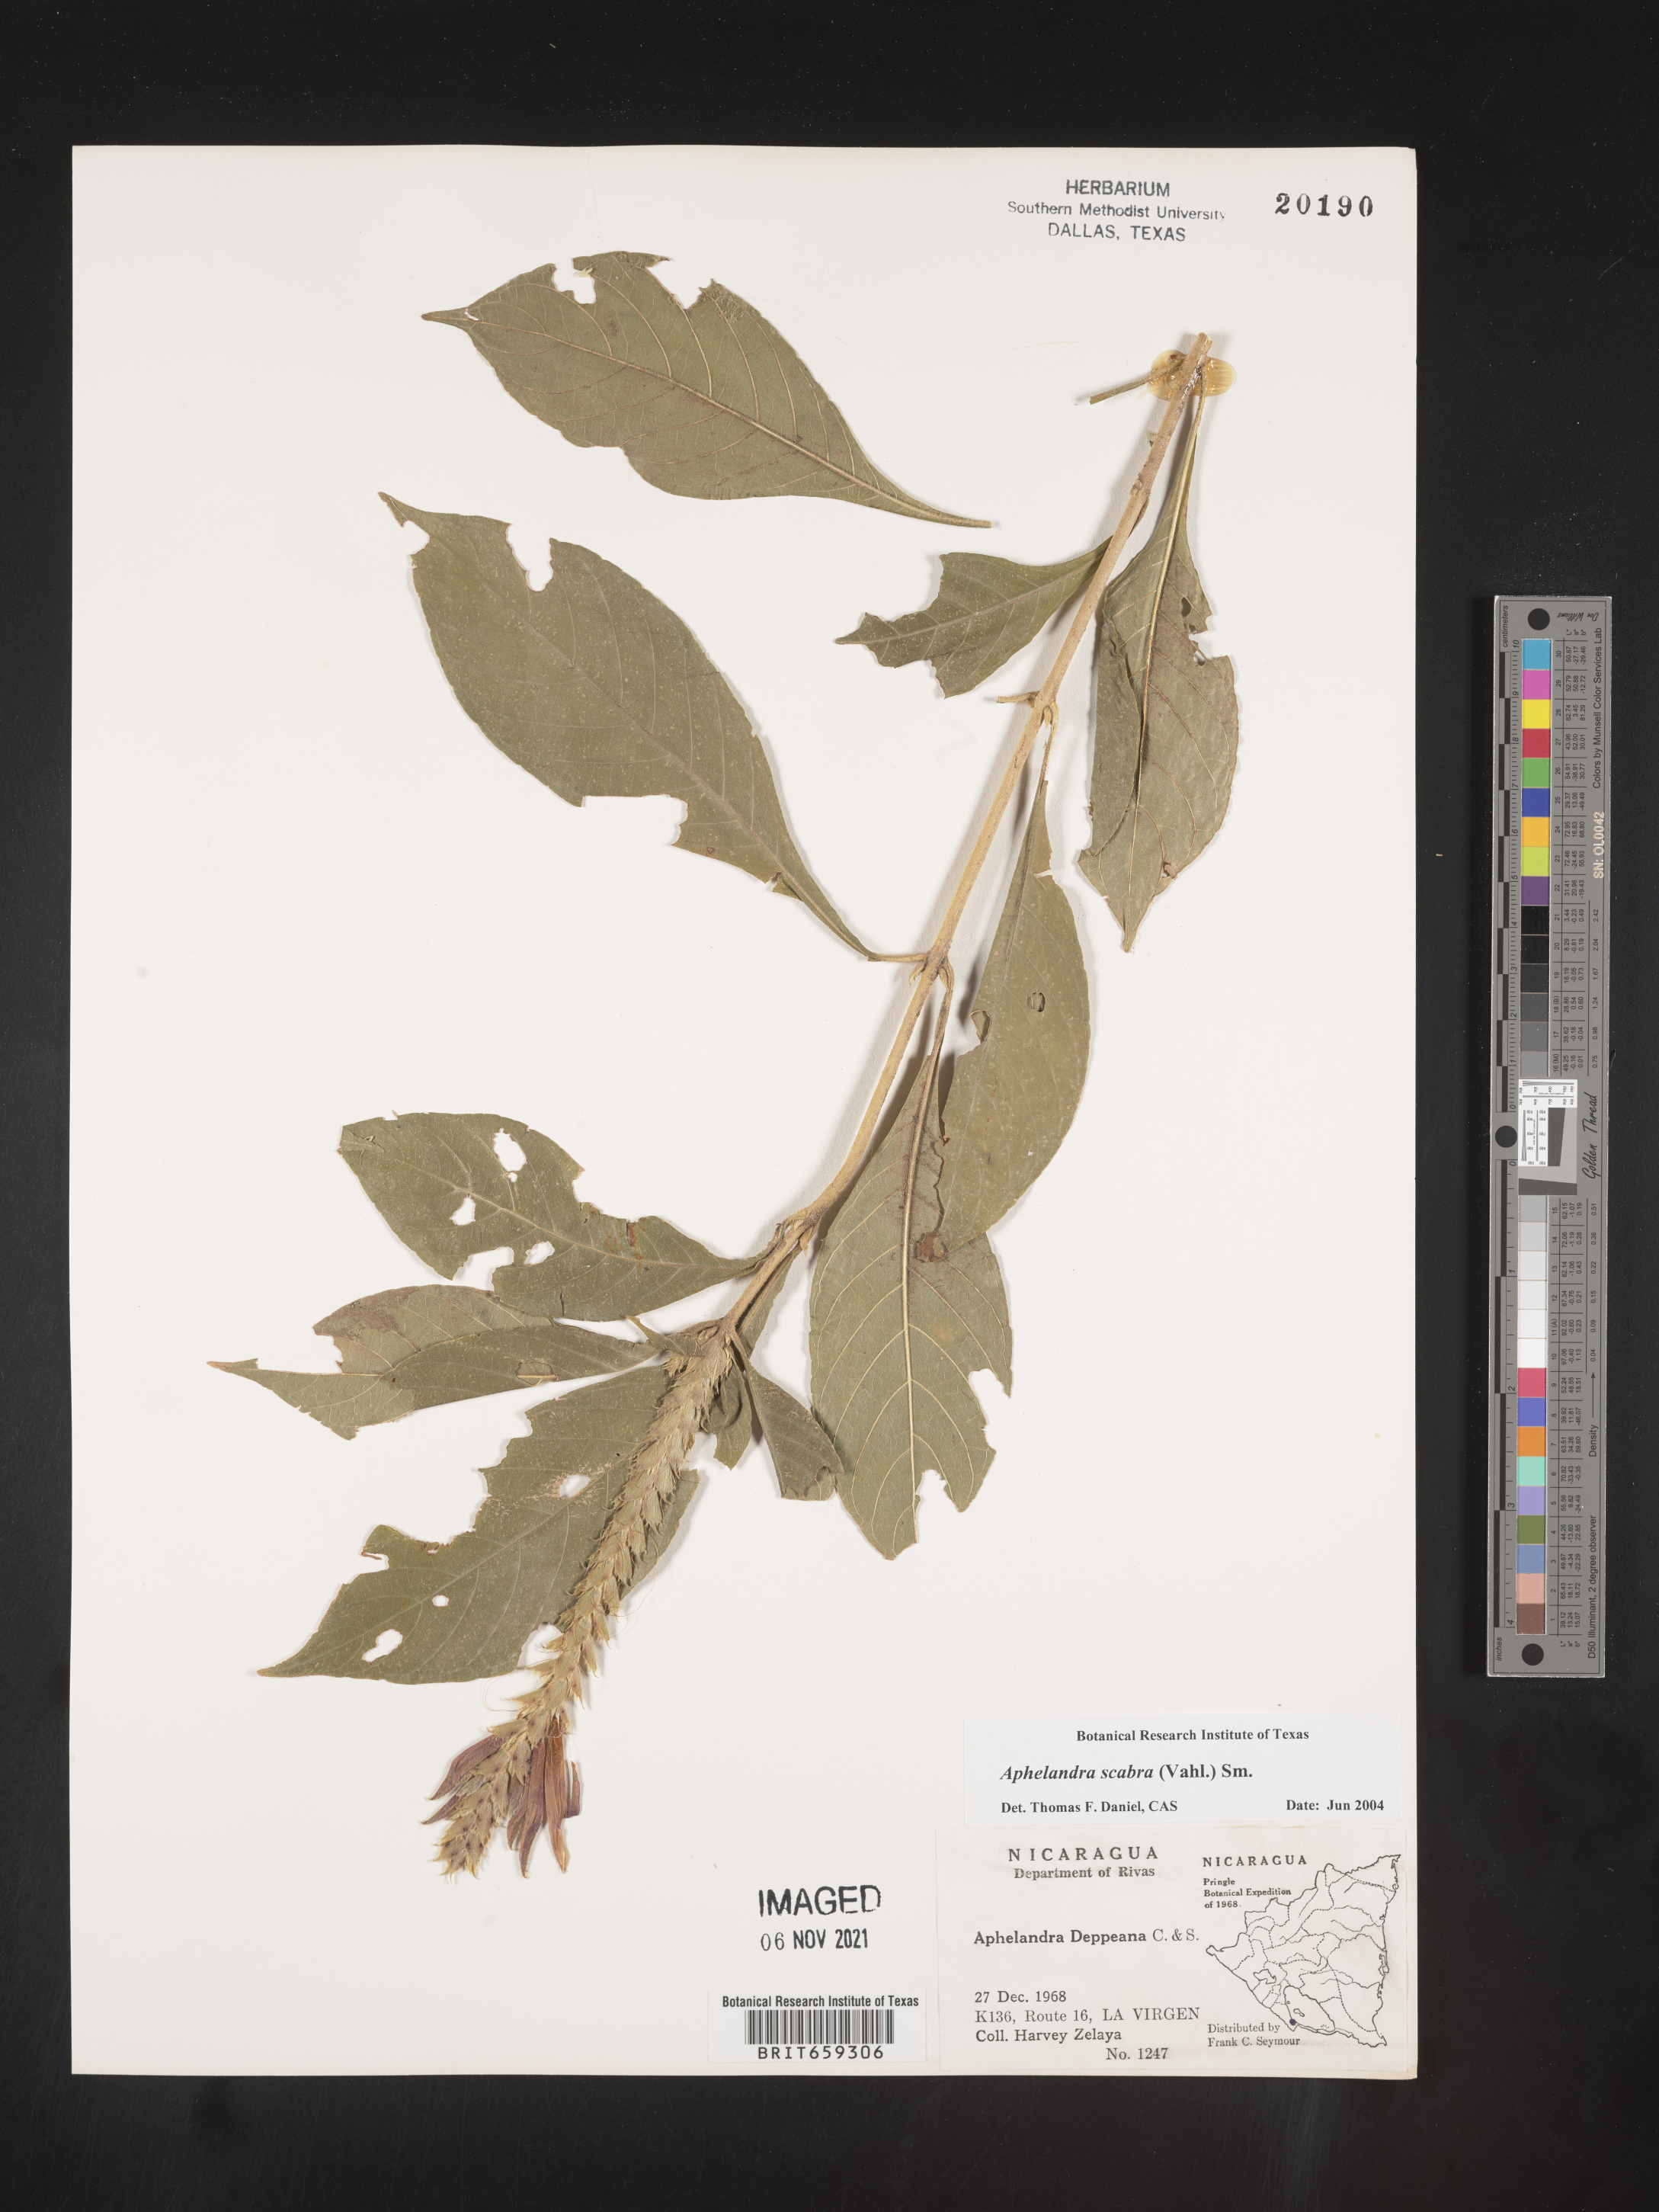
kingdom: Plantae
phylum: Tracheophyta
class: Magnoliopsida
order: Lamiales
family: Acanthaceae
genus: Aphelandra
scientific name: Aphelandra
